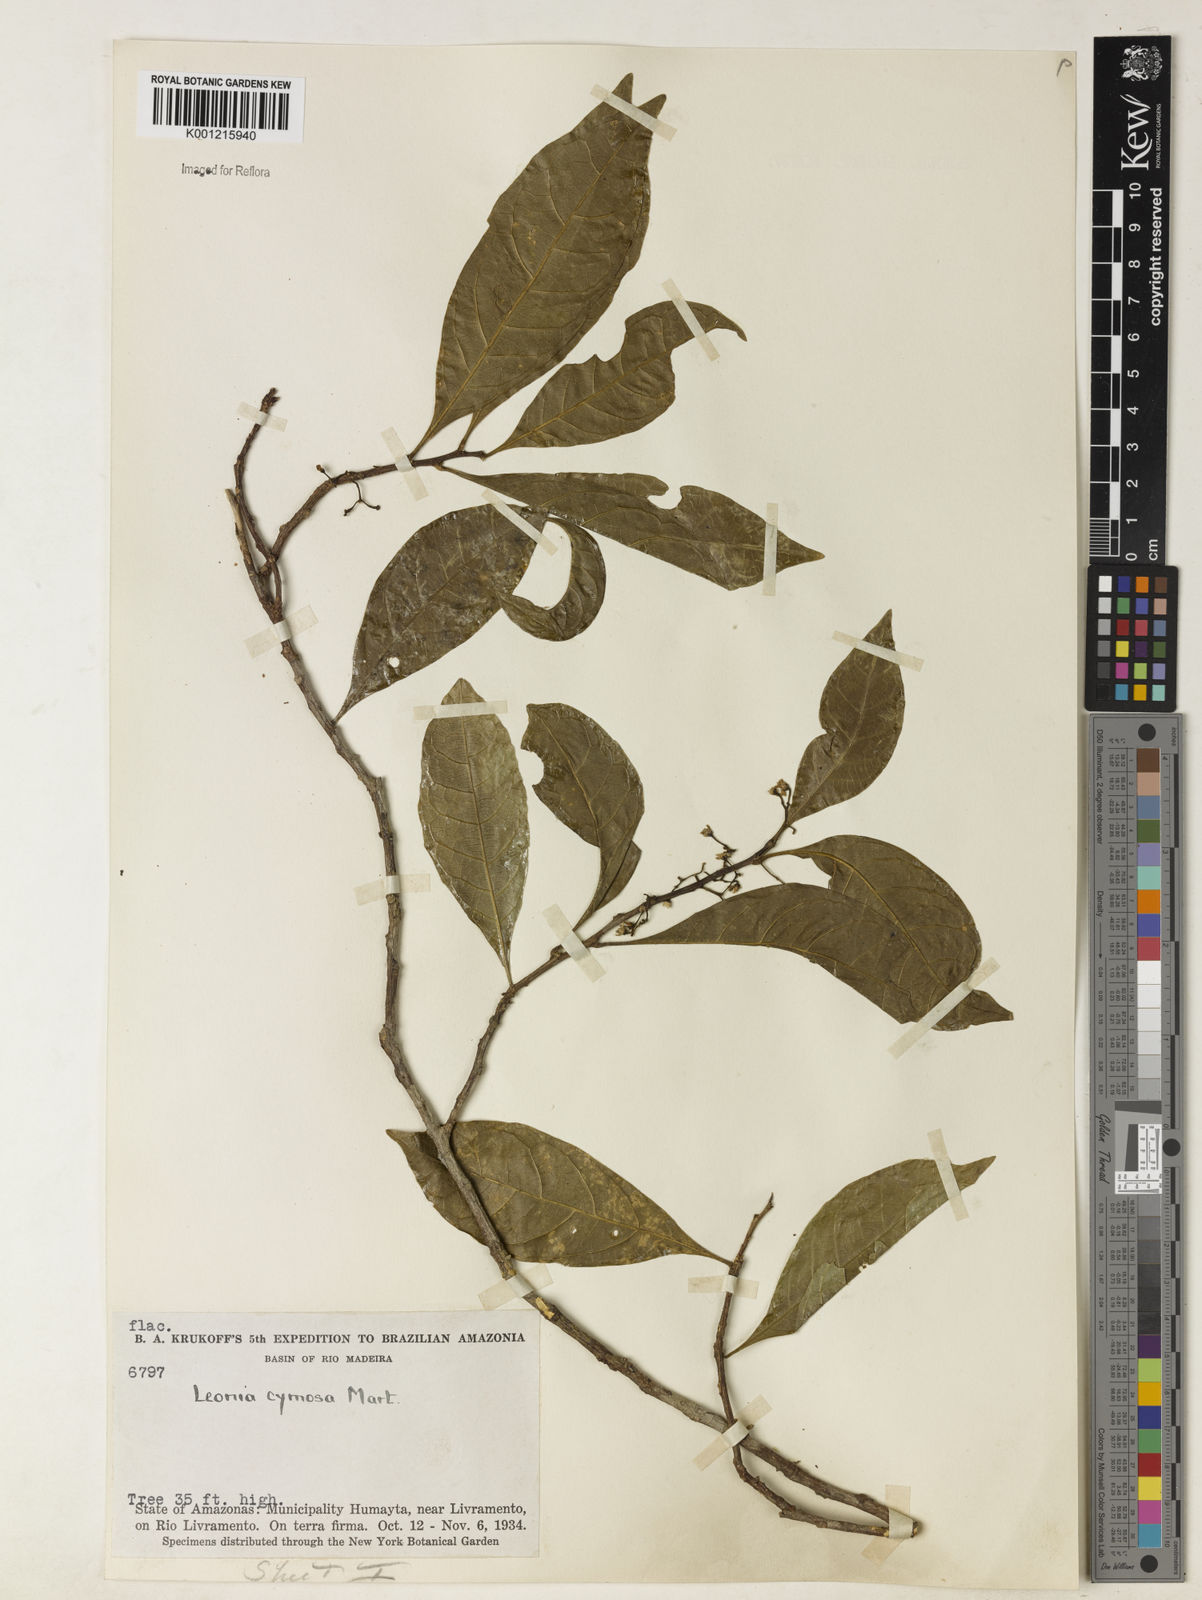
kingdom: Plantae
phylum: Tracheophyta
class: Magnoliopsida
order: Malpighiales
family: Violaceae
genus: Leonia
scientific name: Leonia cymosa
